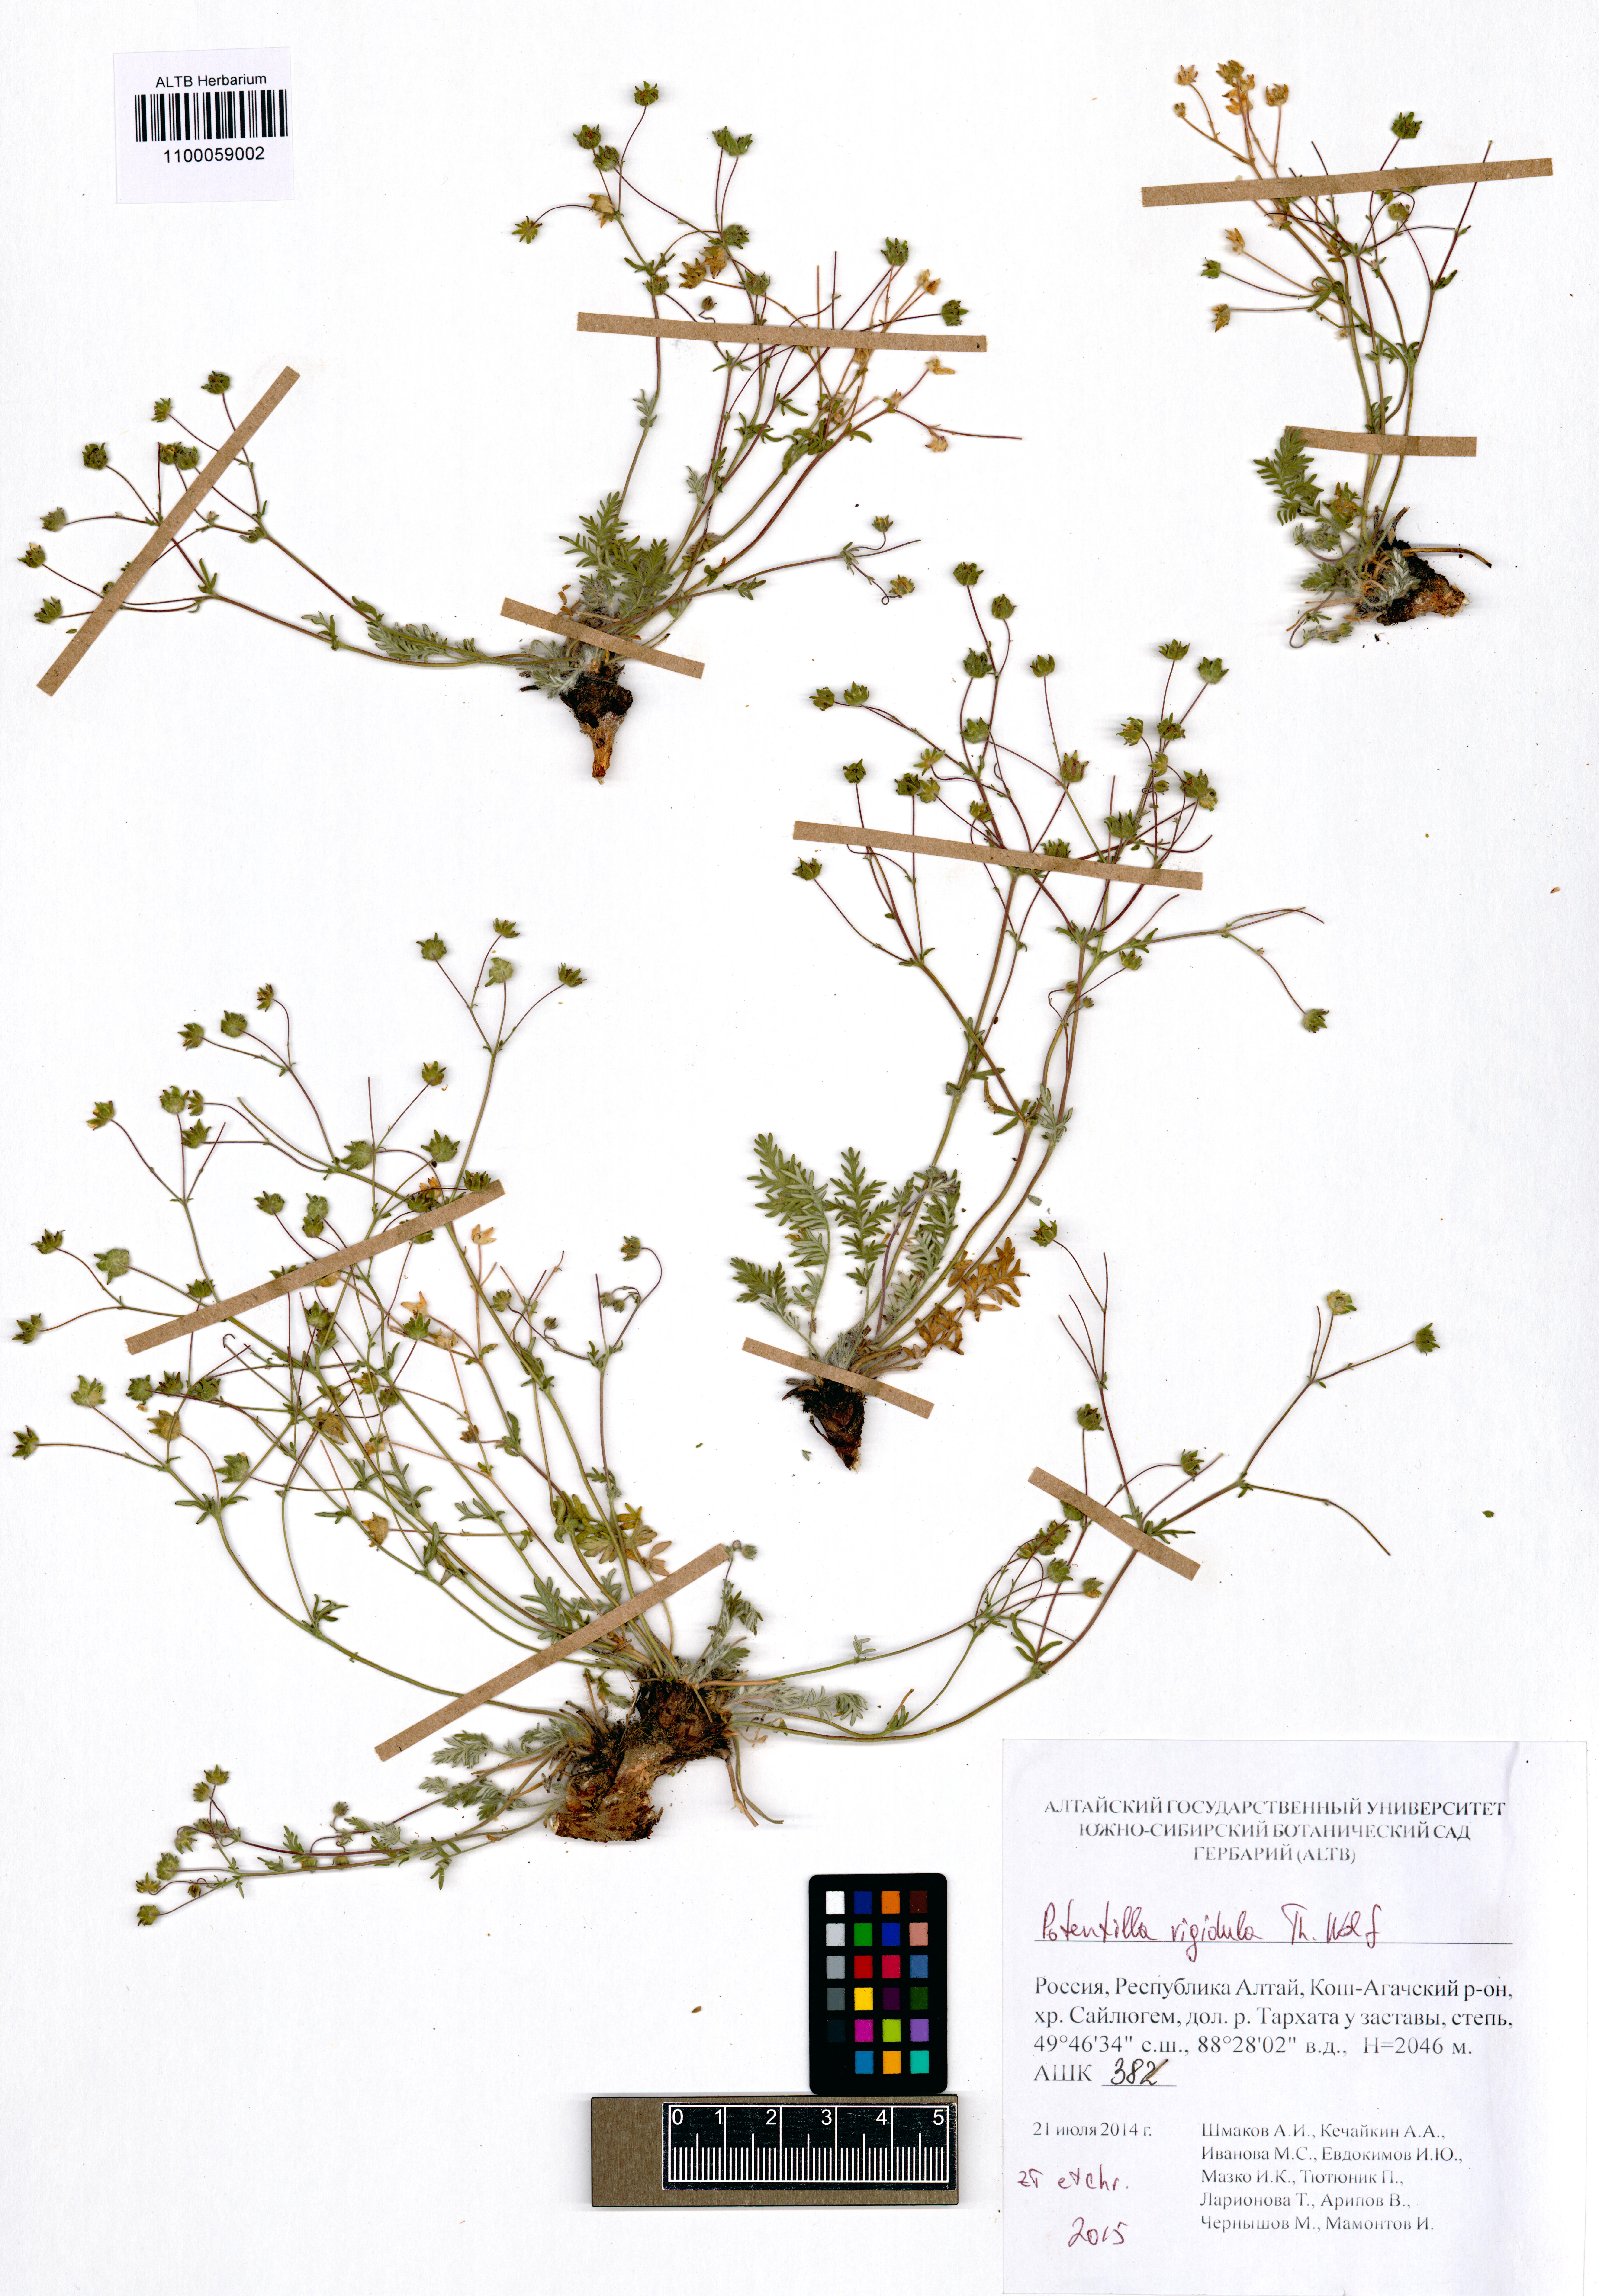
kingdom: Plantae
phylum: Tracheophyta
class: Magnoliopsida
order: Rosales
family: Rosaceae
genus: Potentilla
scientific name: Potentilla rigidula
